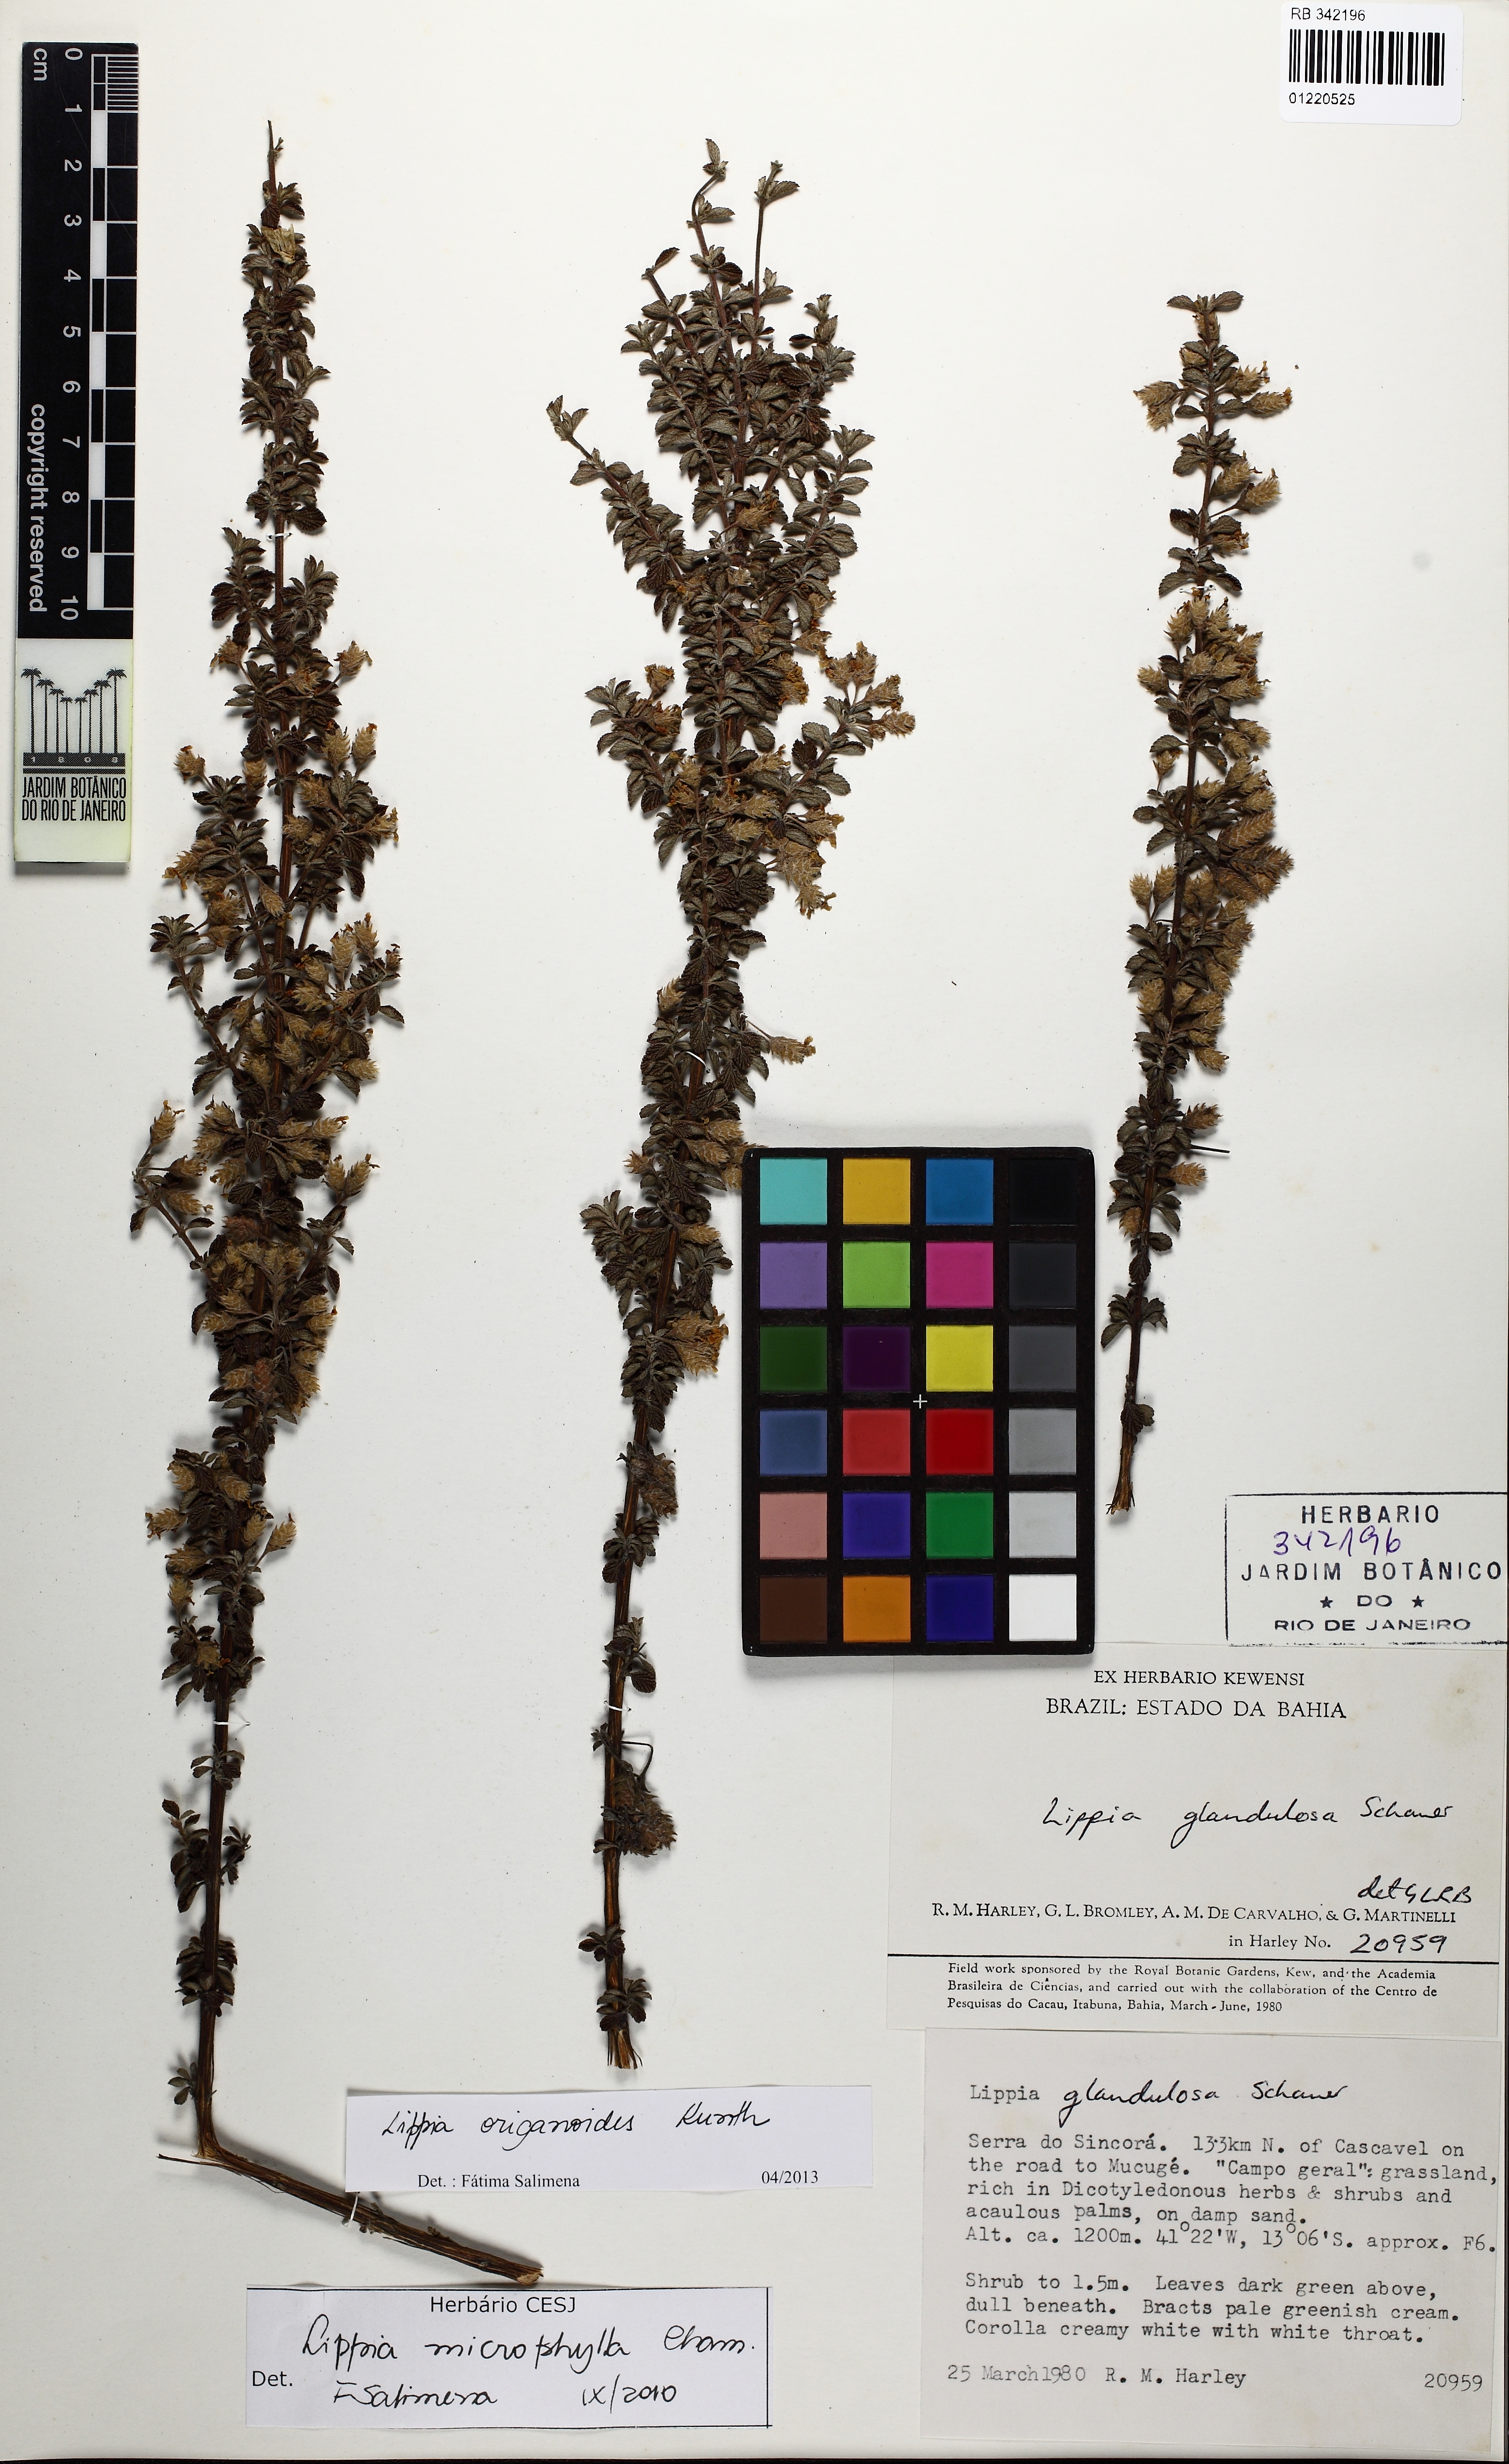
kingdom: Plantae
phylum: Tracheophyta
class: Magnoliopsida
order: Lamiales
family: Verbenaceae
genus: Lippia
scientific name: Lippia origanoides
